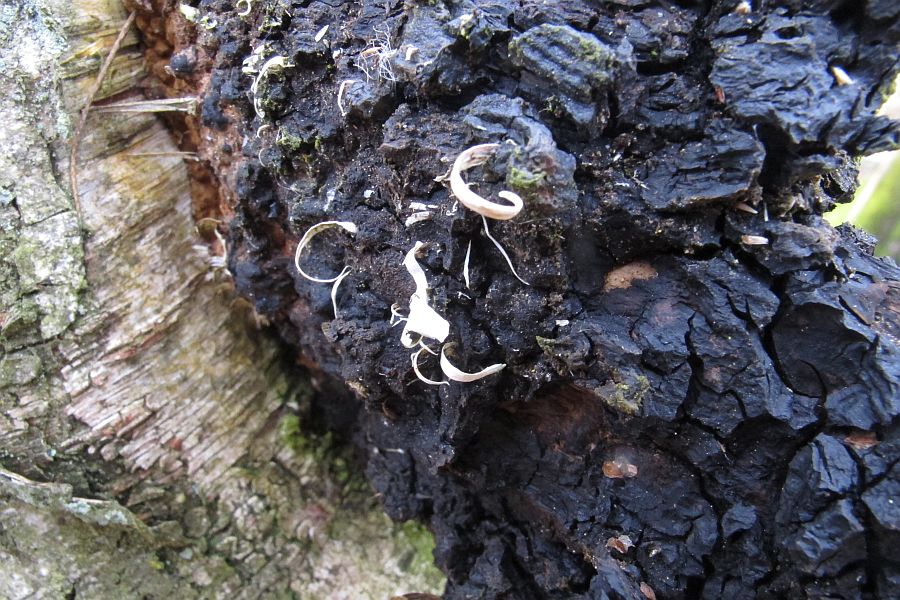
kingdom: Fungi
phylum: Basidiomycota
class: Agaricomycetes
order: Hymenochaetales
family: Hymenochaetaceae
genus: Inonotus
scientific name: Inonotus obliquus
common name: birke-spejlporesvamp
